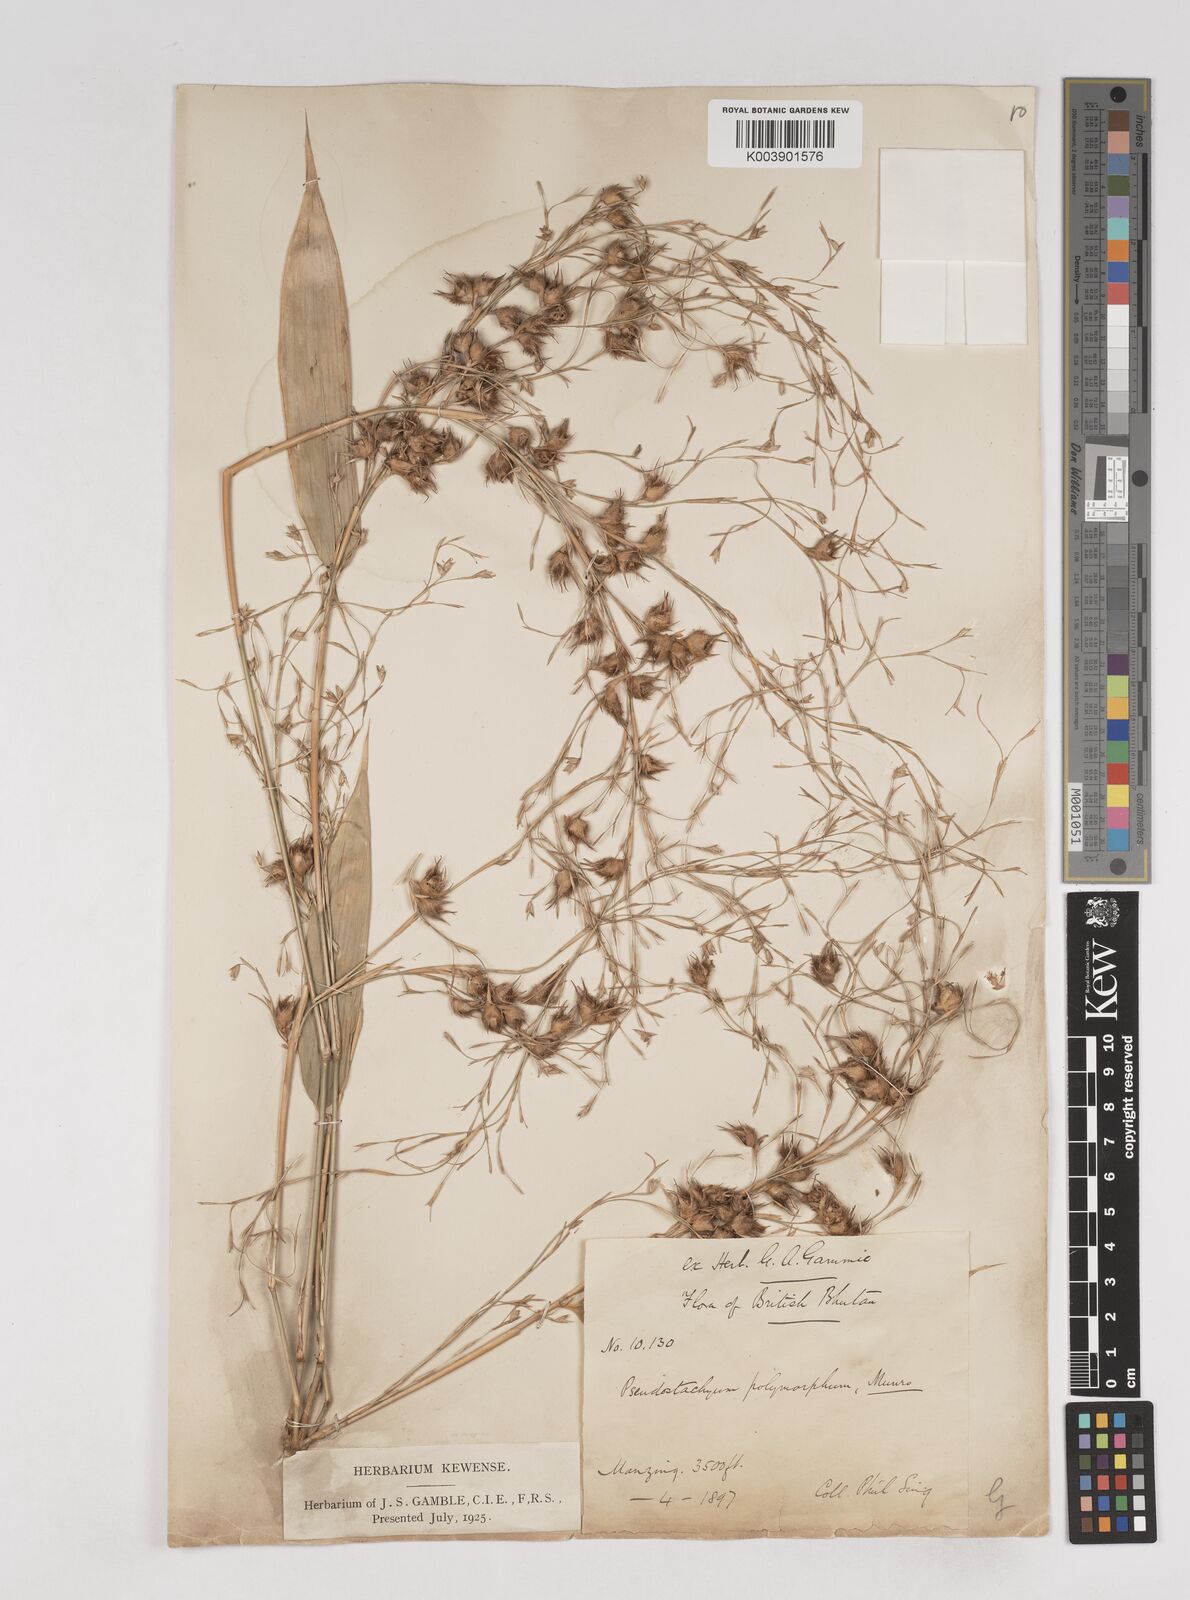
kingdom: Plantae
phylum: Tracheophyta
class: Liliopsida
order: Poales
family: Poaceae
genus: Pseudostachyum
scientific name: Pseudostachyum polymorphum
